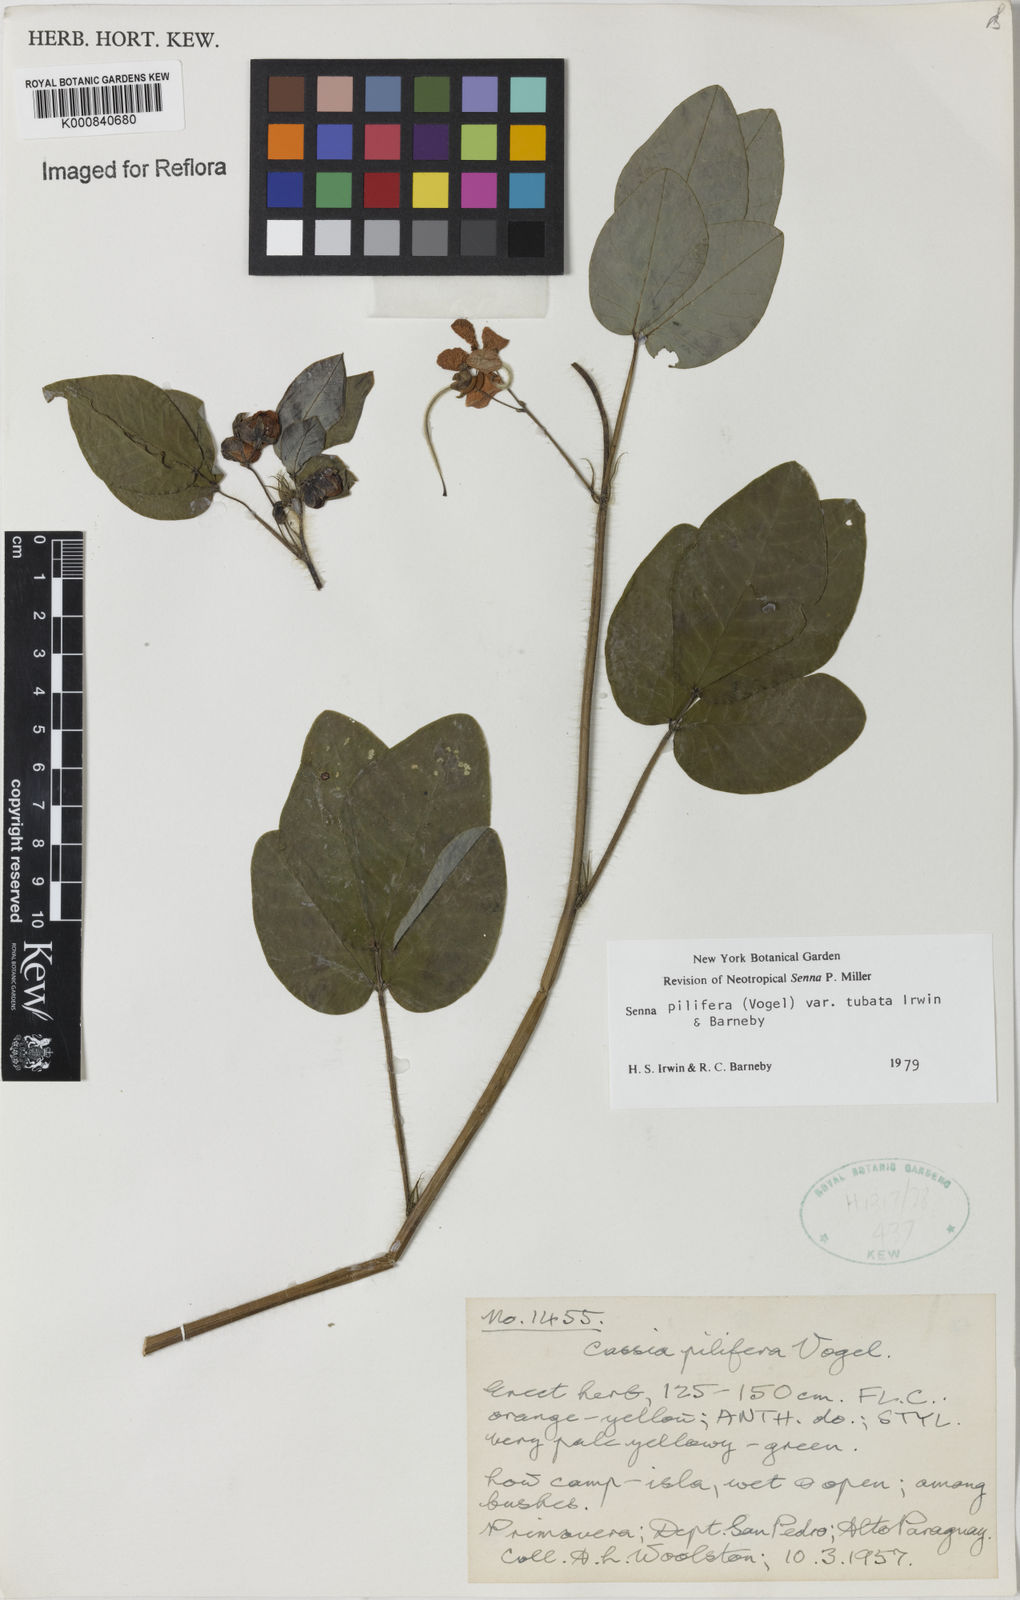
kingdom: Plantae
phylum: Tracheophyta
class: Magnoliopsida
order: Fabales
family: Fabaceae
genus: Senna
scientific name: Senna pilifera
